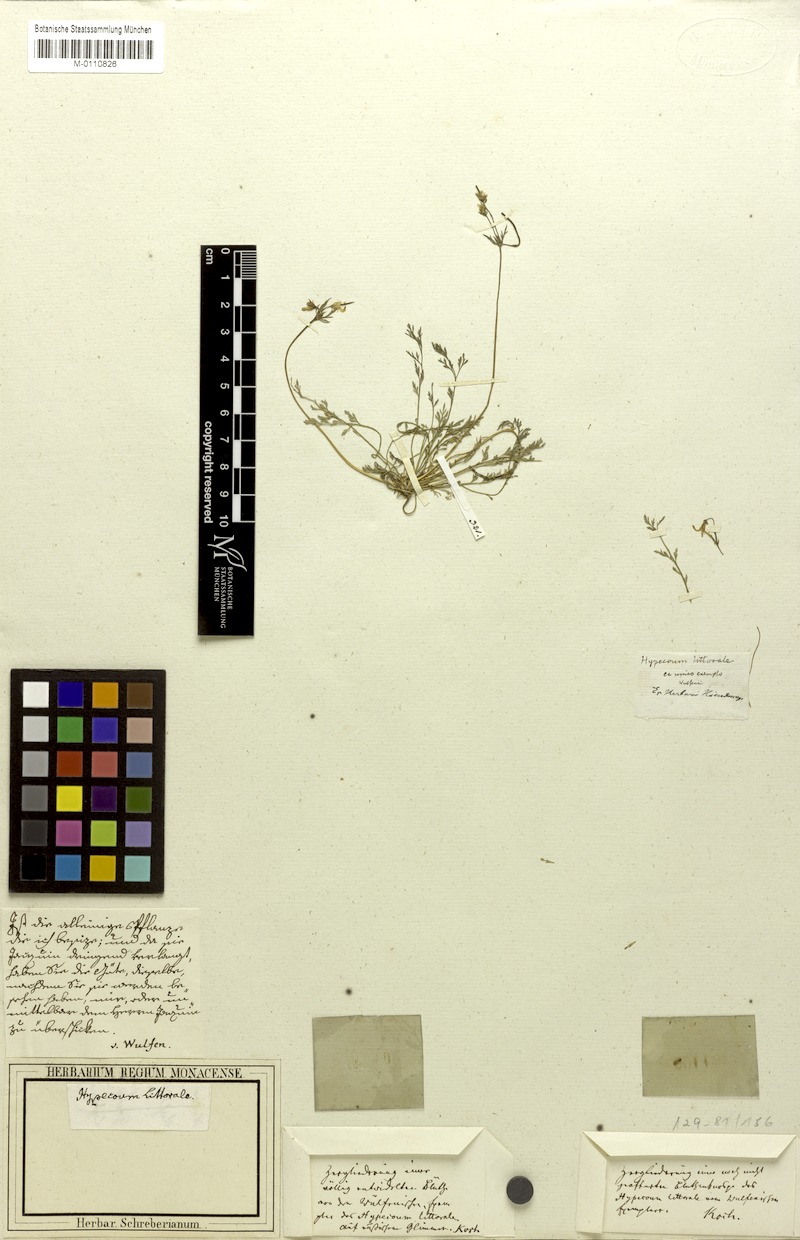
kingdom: Plantae
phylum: Tracheophyta
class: Magnoliopsida
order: Ranunculales
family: Papaveraceae
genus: Hypecoum
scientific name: Hypecoum littorale
